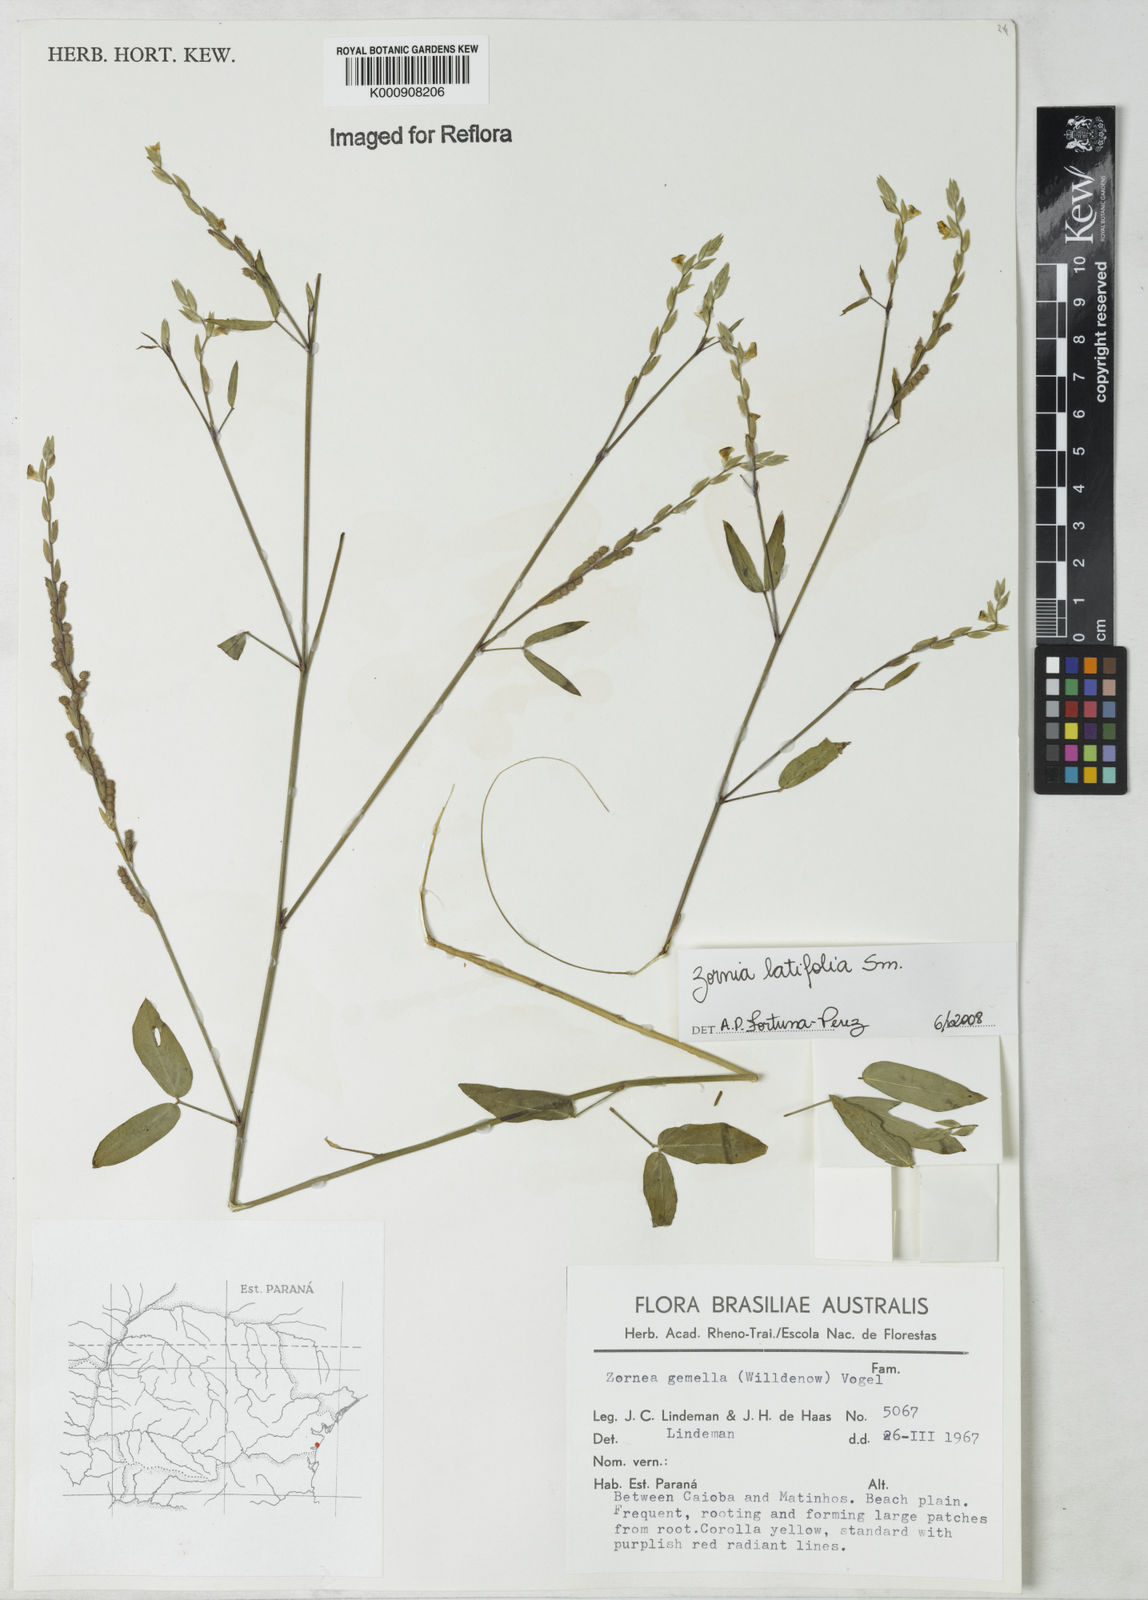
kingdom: Plantae
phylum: Tracheophyta
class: Magnoliopsida
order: Fabales
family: Fabaceae
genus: Zornia
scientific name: Zornia latifolia
